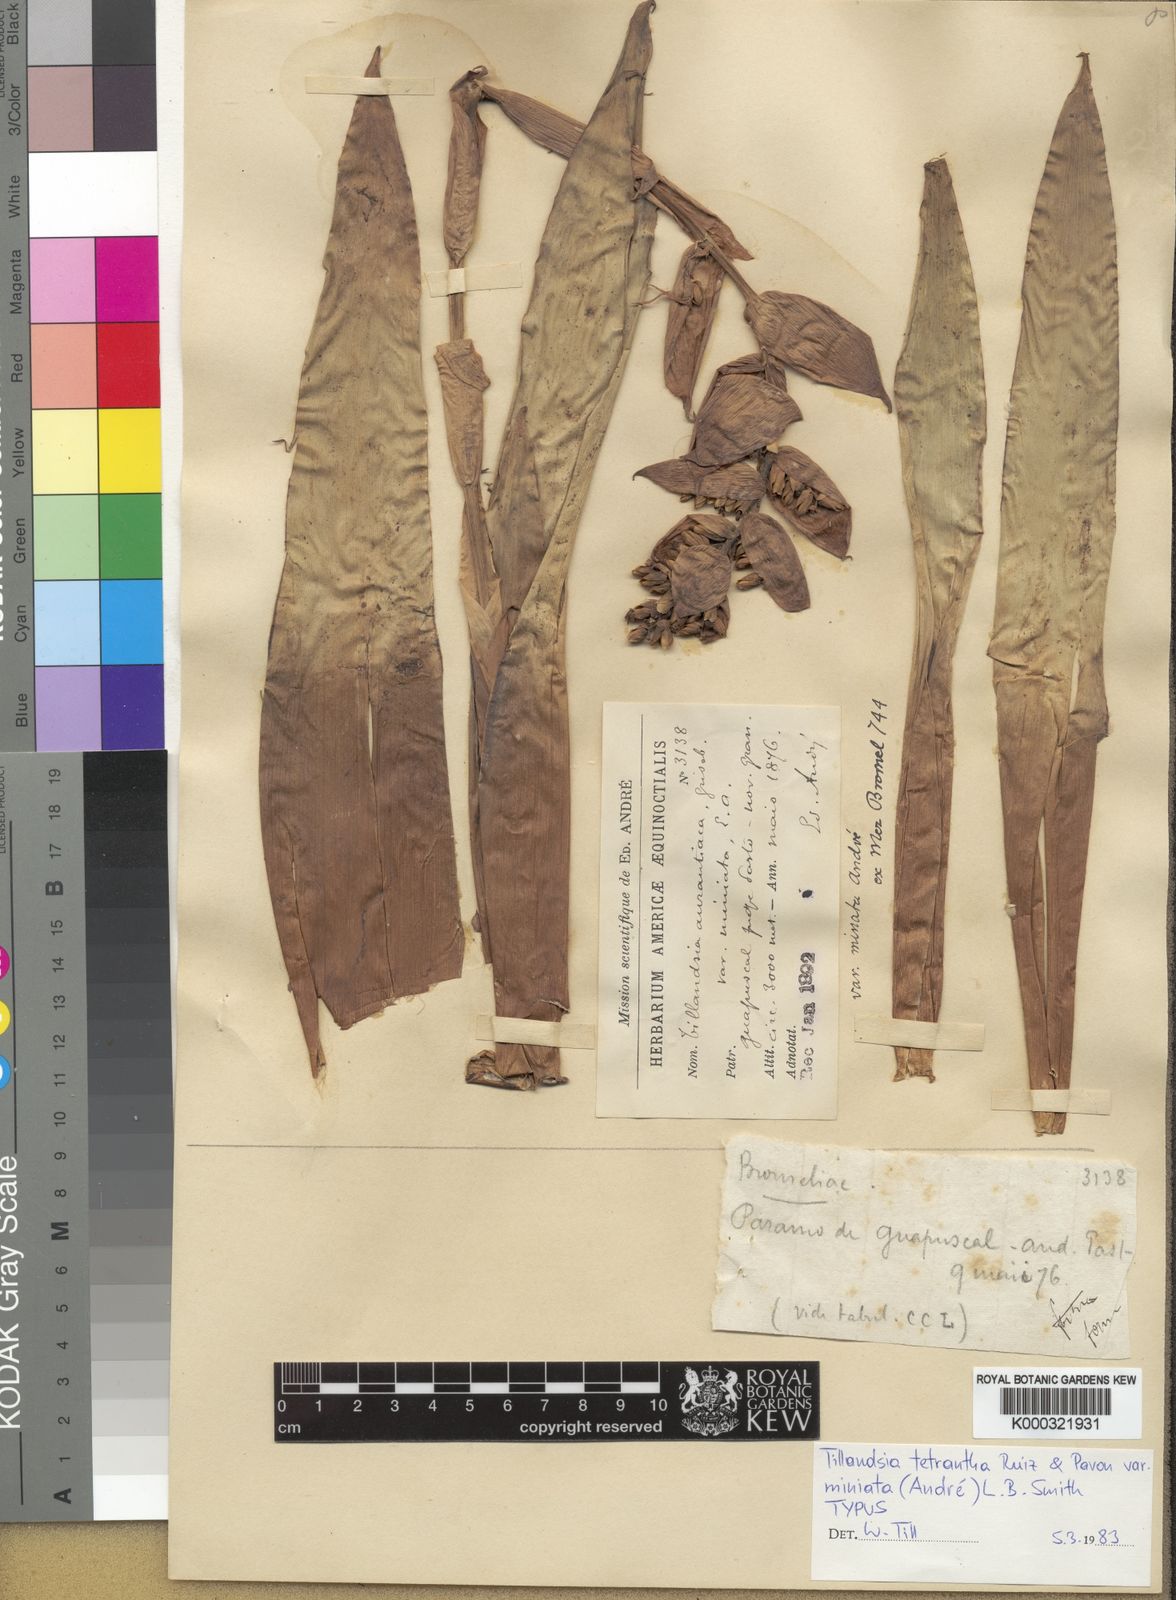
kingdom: Plantae
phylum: Tracheophyta
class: Liliopsida
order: Poales
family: Bromeliaceae
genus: Racinaea
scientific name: Racinaea tetrantha
